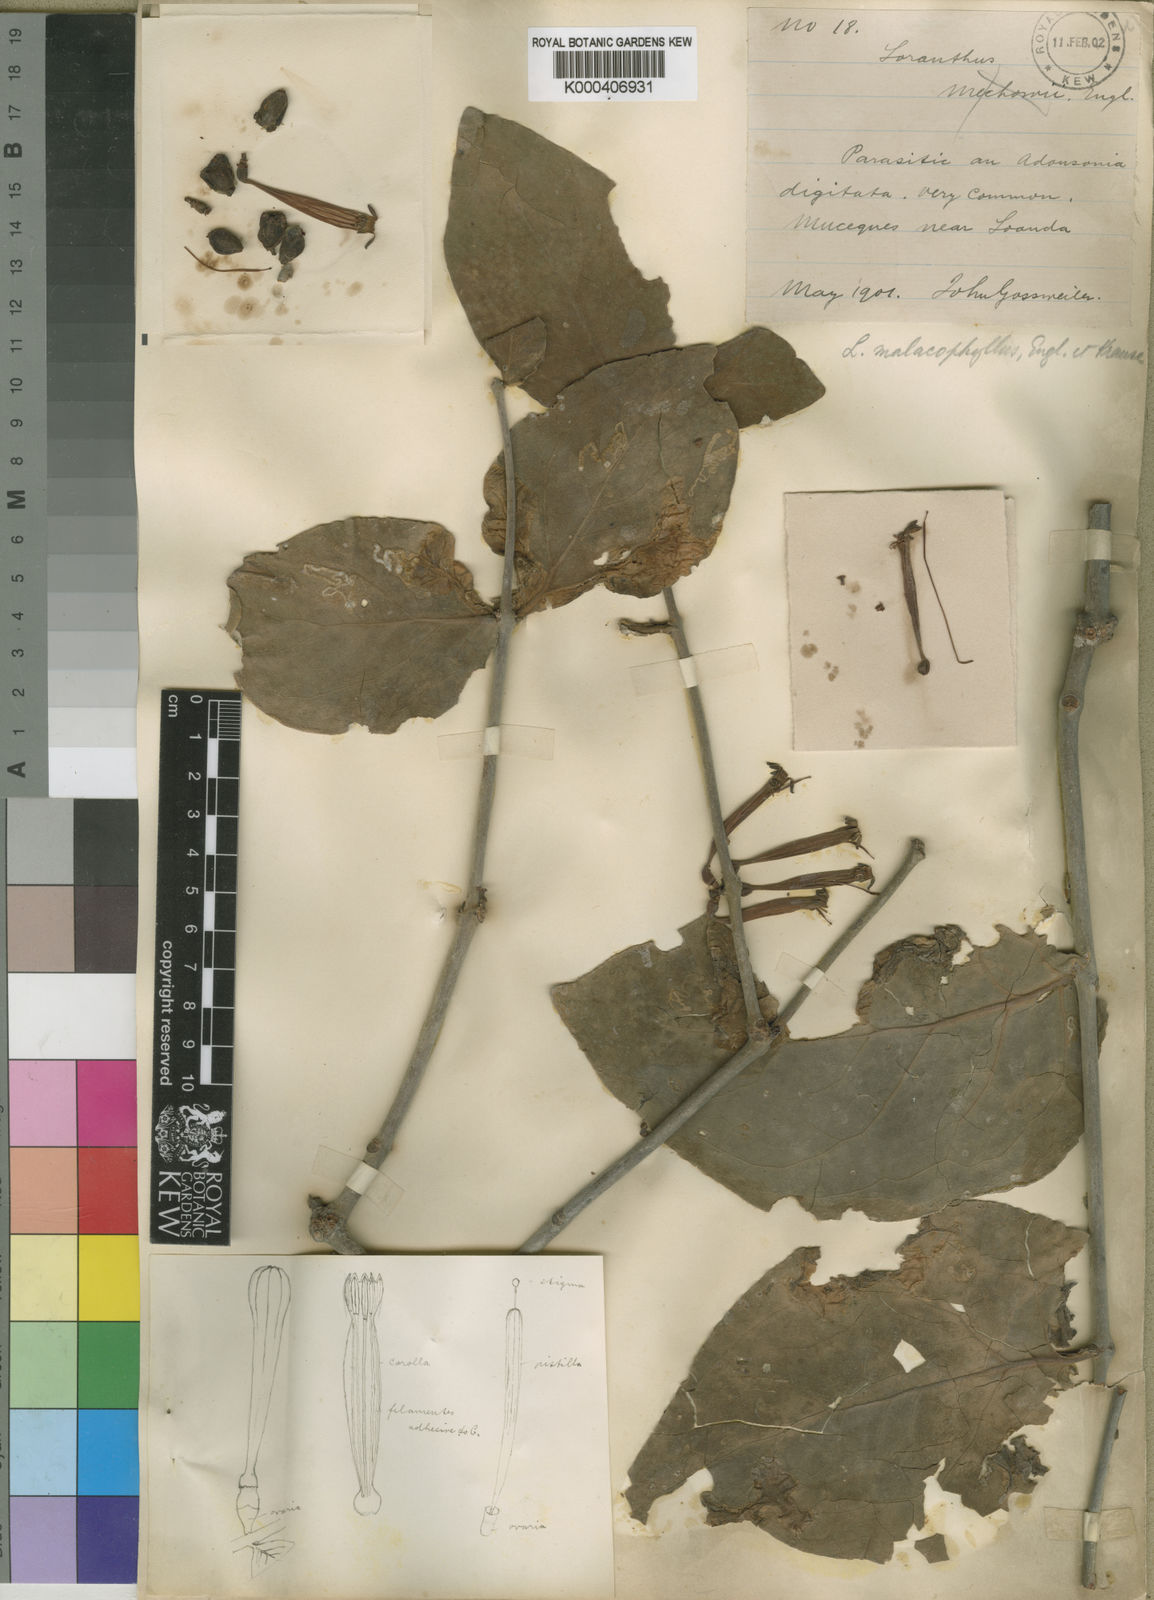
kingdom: Plantae
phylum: Tracheophyta
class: Magnoliopsida
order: Santalales
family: Loranthaceae
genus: Tapinanthus
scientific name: Tapinanthus mollissimus
